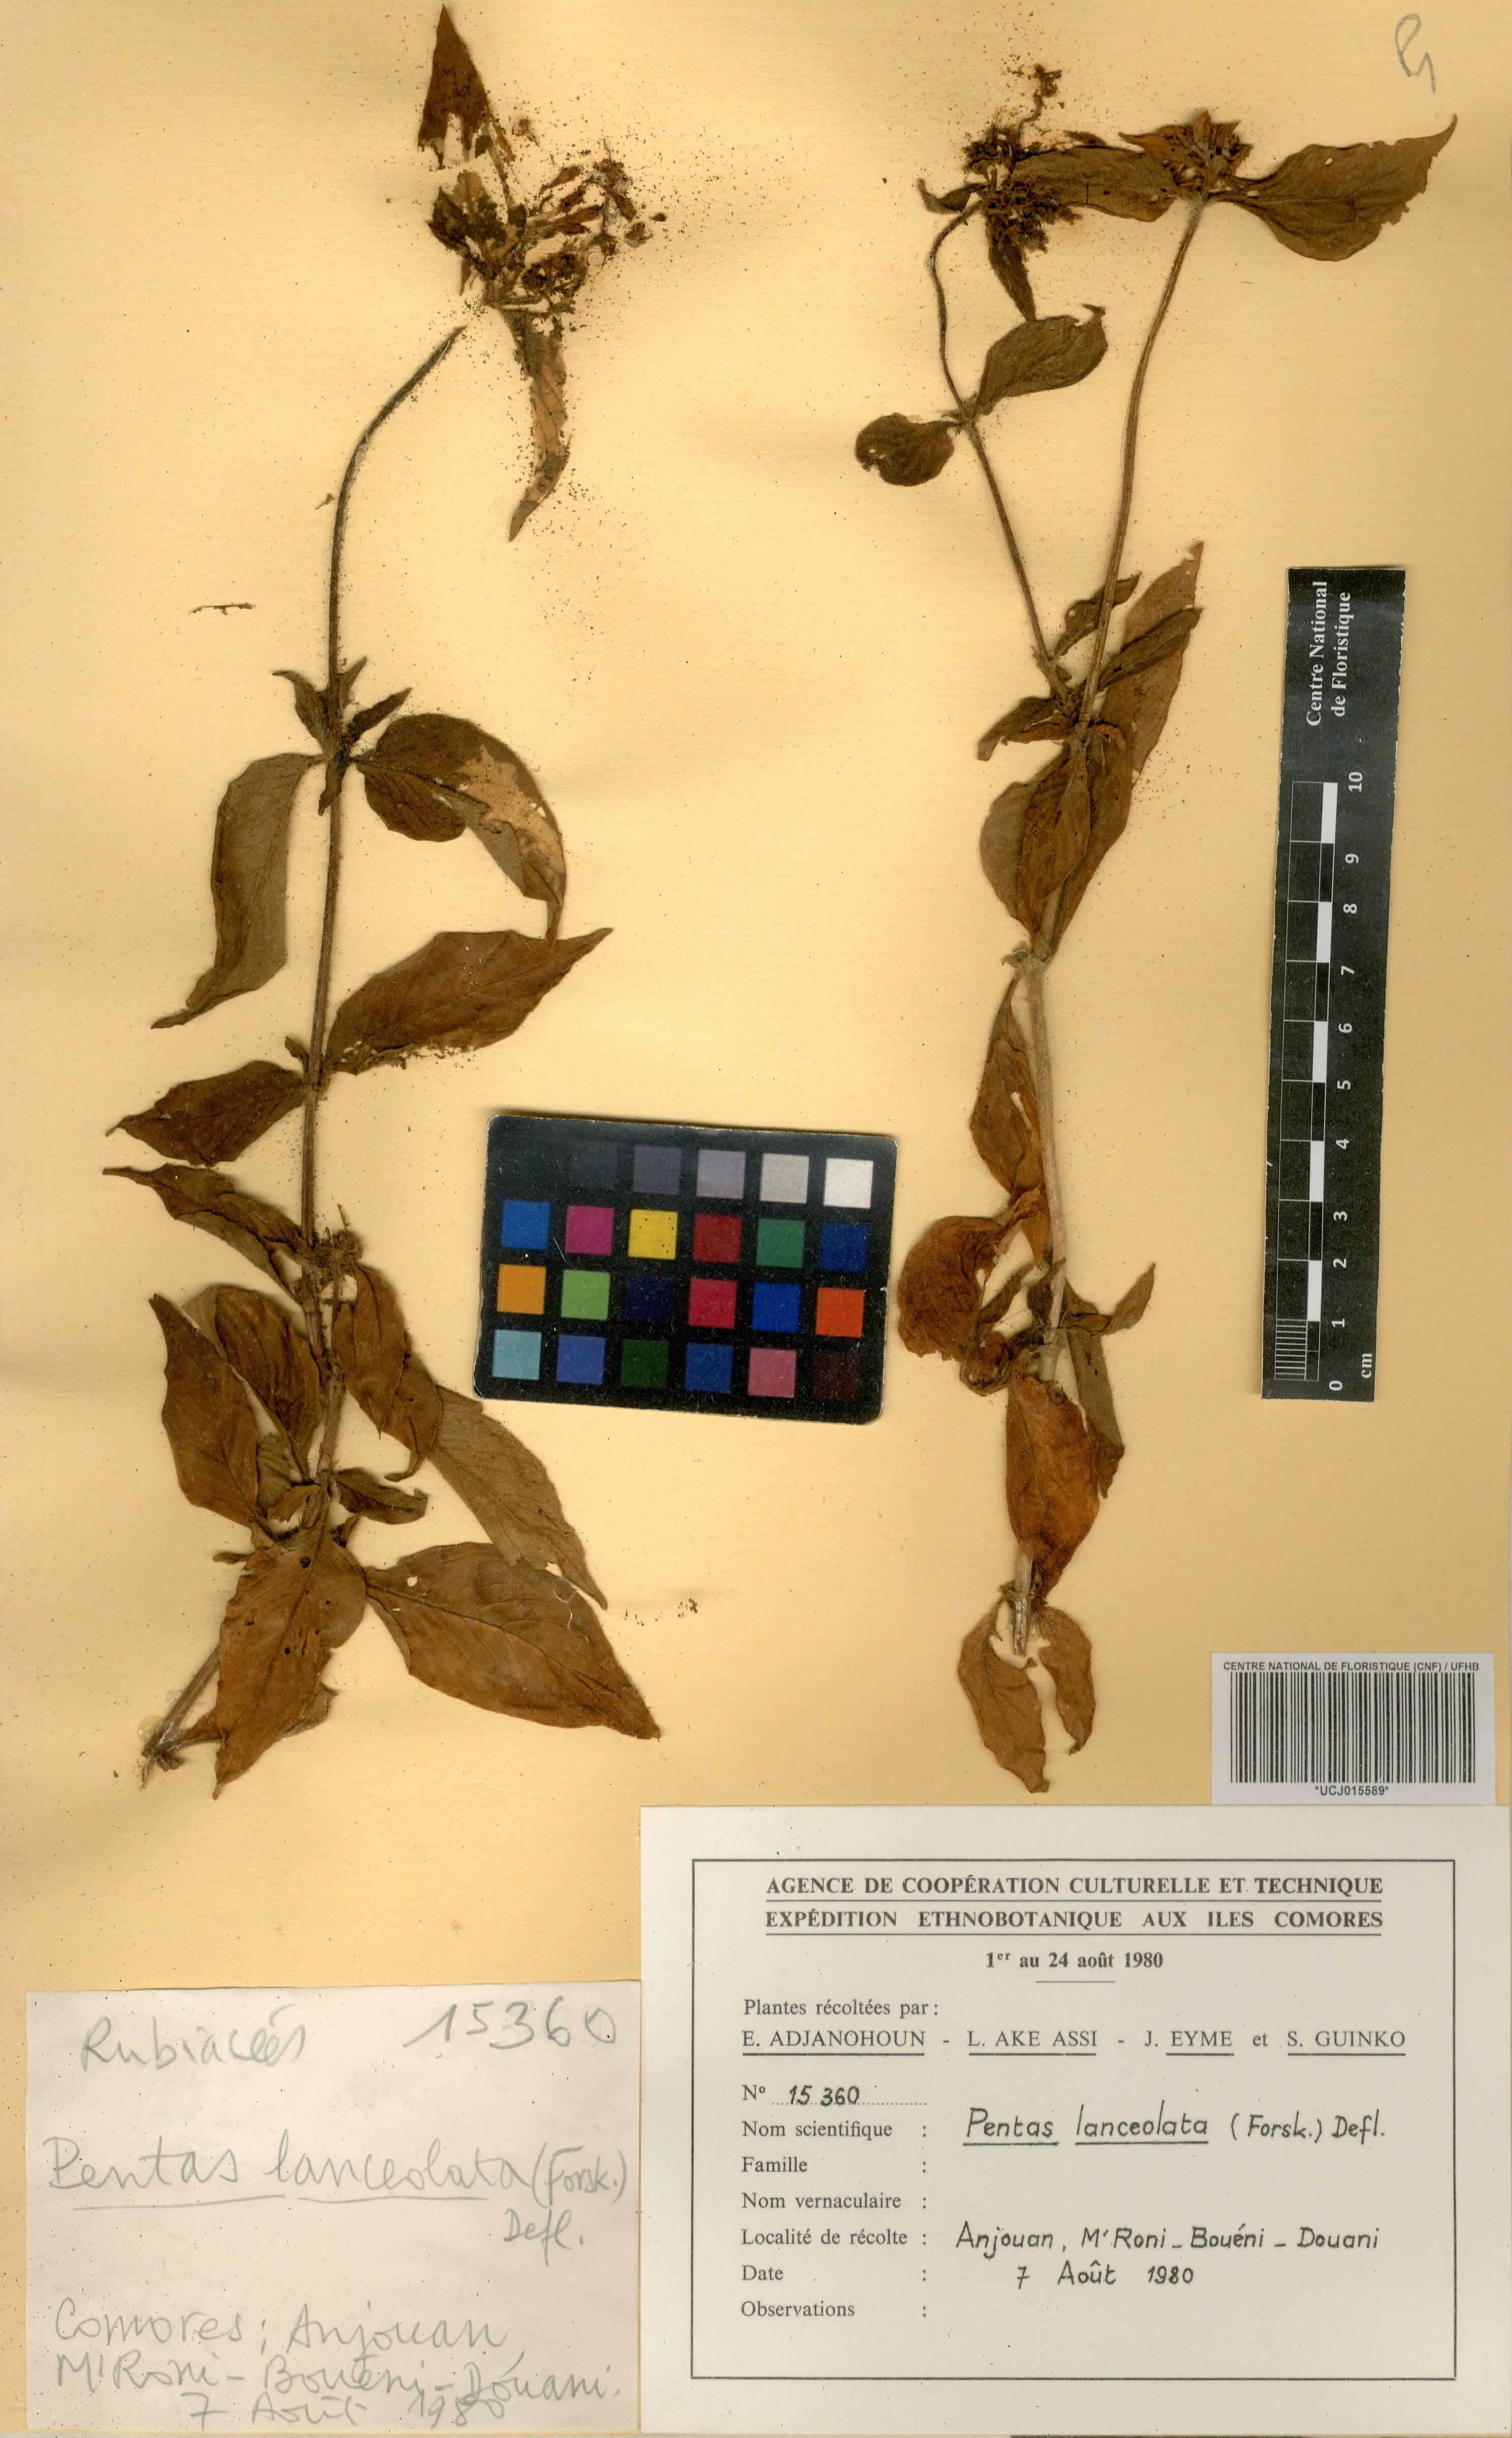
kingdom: Plantae
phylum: Tracheophyta
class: Magnoliopsida
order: Gentianales
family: Rubiaceae
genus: Pentas
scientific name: Pentas lanceolata
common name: Egyptian starcluster
